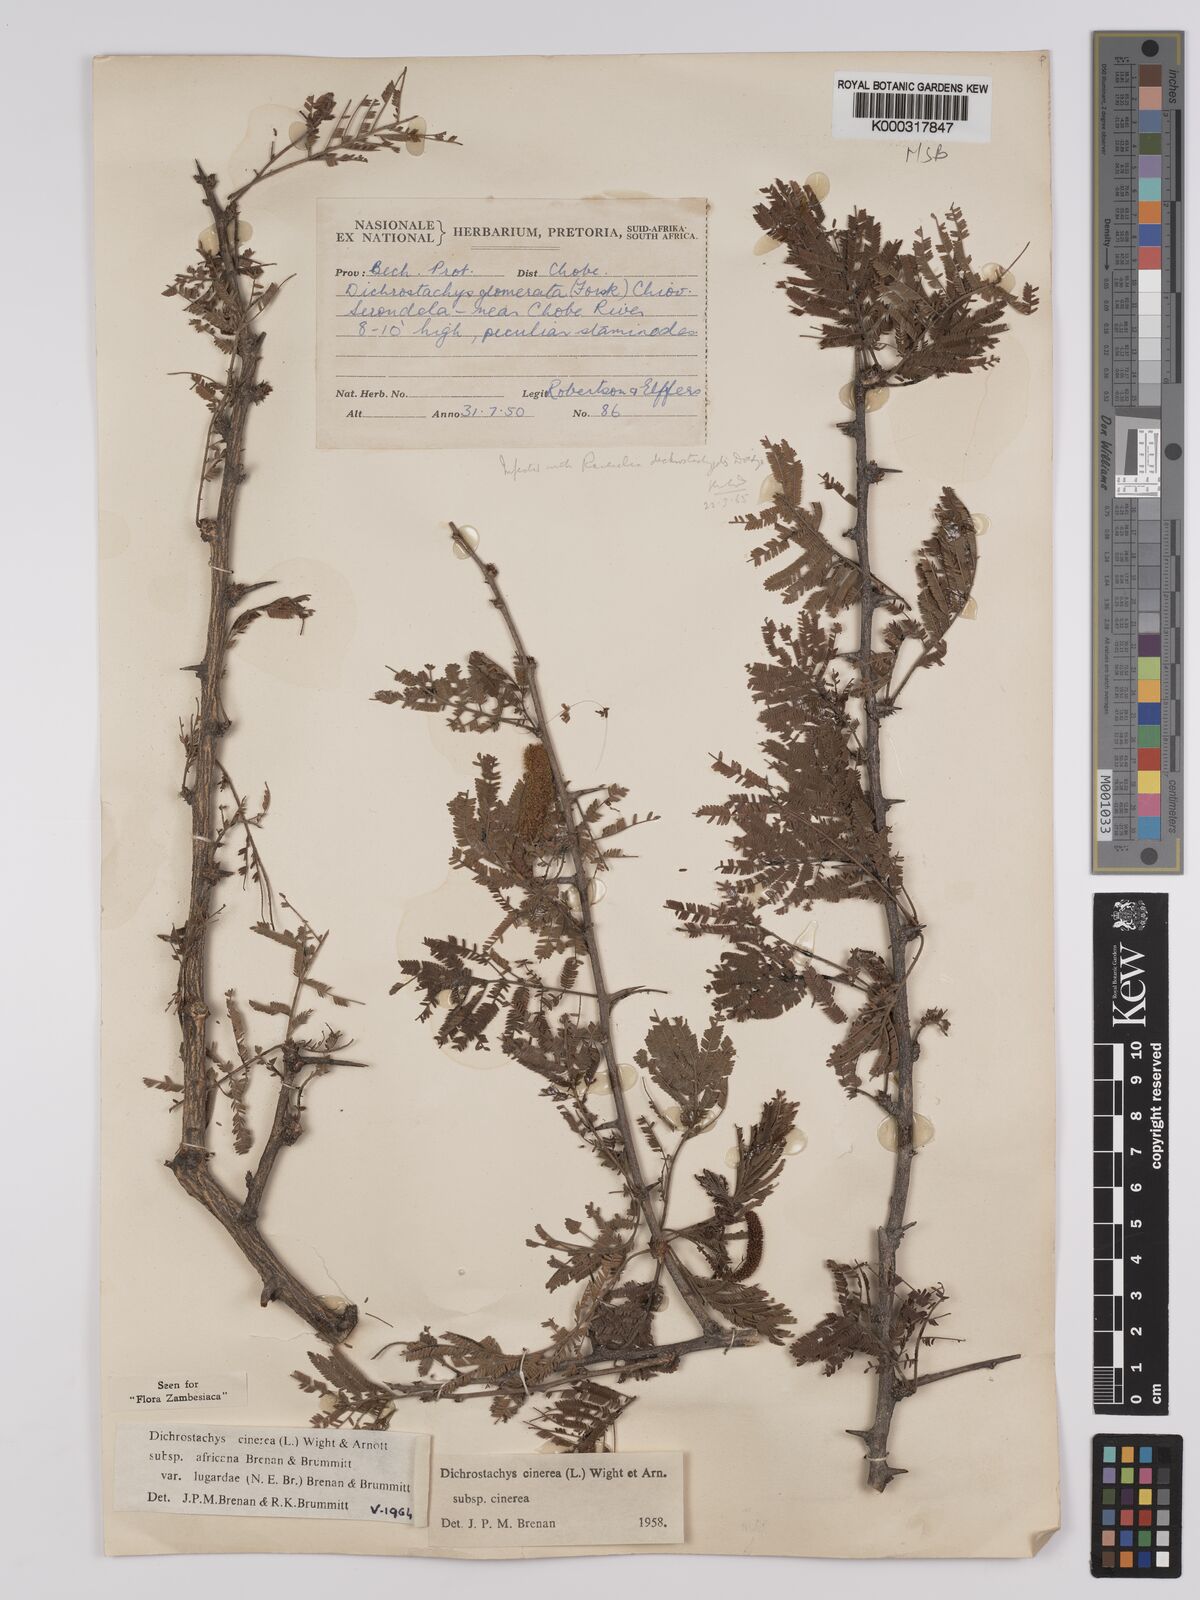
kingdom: Plantae
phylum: Tracheophyta
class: Magnoliopsida
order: Fabales
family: Fabaceae
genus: Dichrostachys
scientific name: Dichrostachys cinerea
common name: Sicklebush
